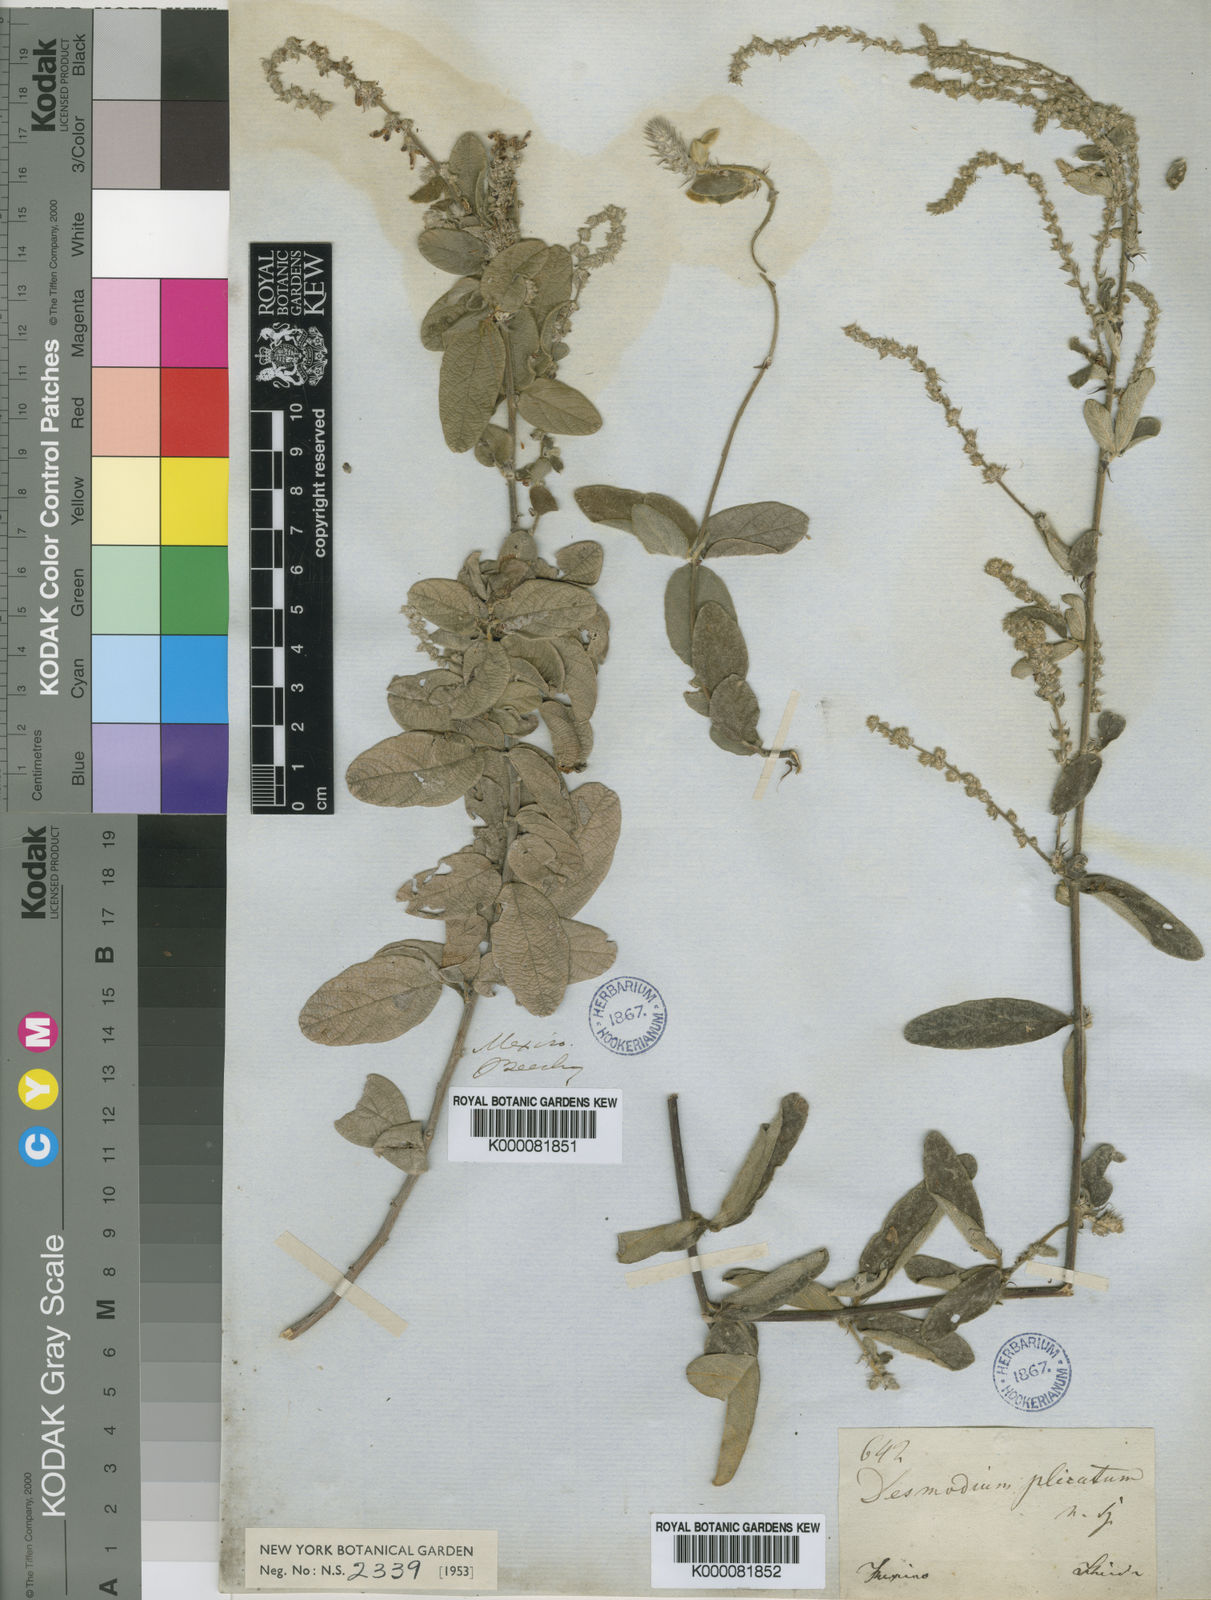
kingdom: Plantae
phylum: Tracheophyta
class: Magnoliopsida
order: Fabales
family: Fabaceae
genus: Desmodium
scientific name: Desmodium plicatum
